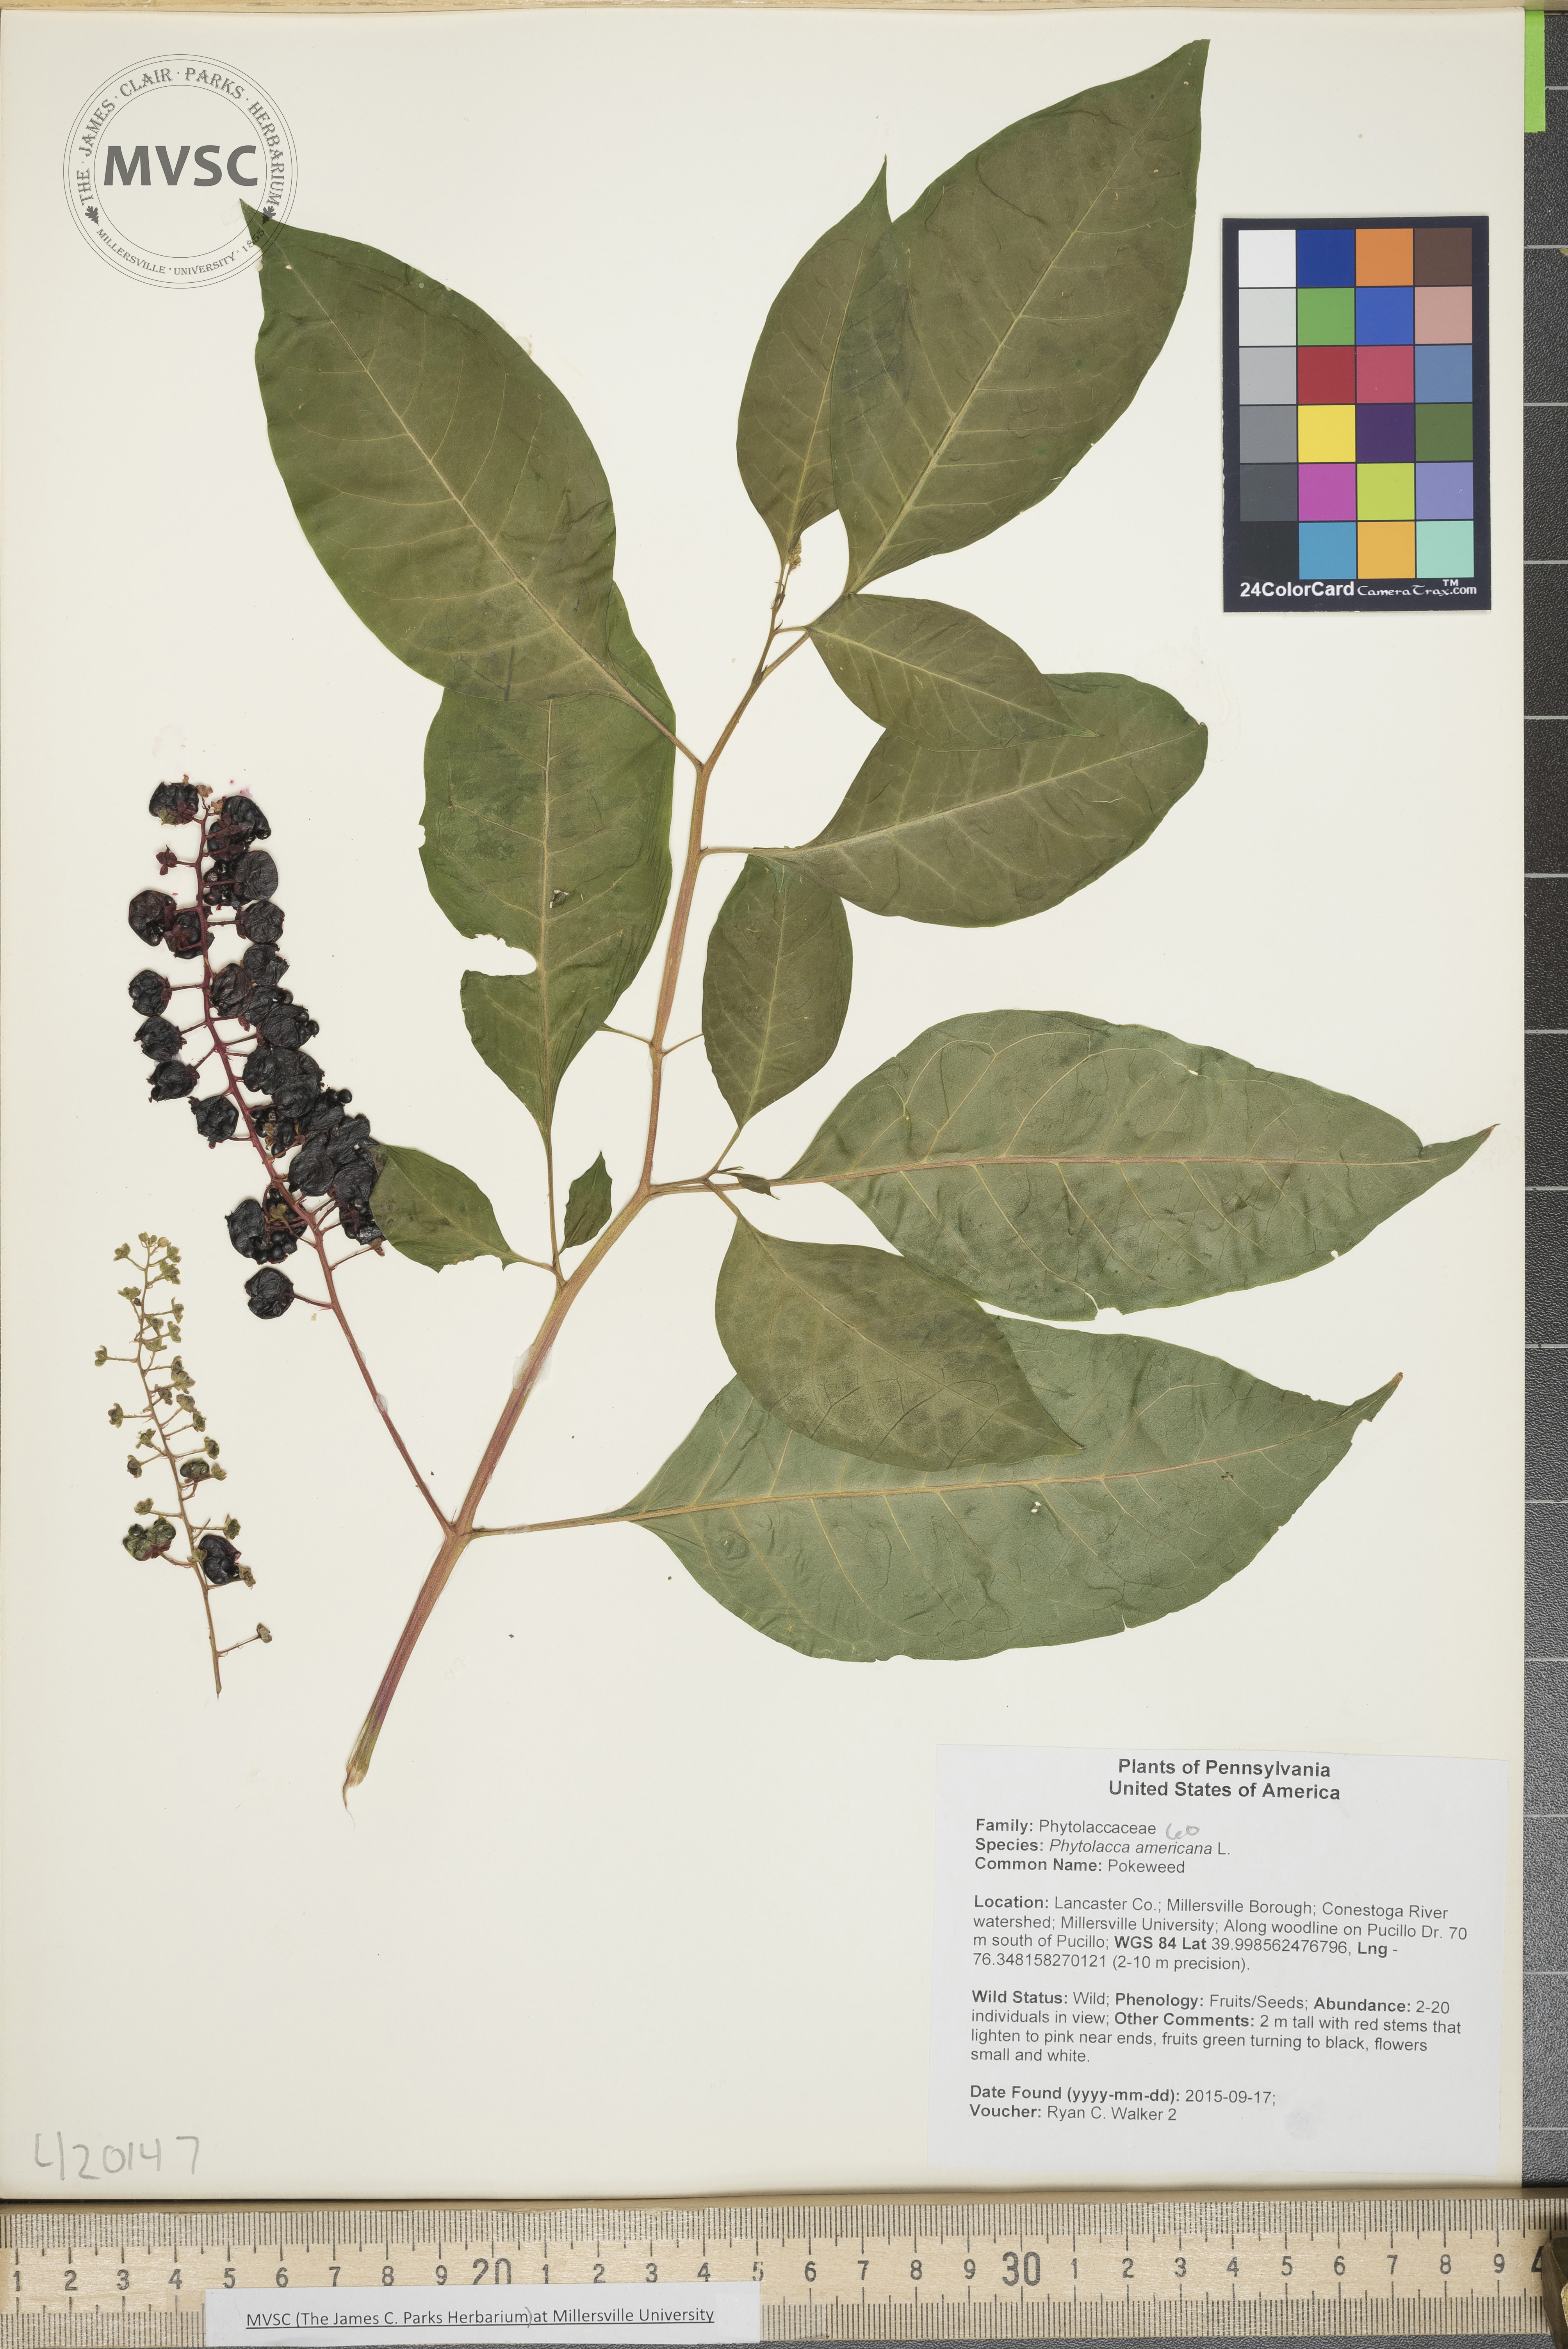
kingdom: Plantae
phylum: Tracheophyta
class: Magnoliopsida
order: Caryophyllales
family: Phytolaccaceae
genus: Phytolacca
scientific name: Phytolacca americana
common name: Pokeweed
